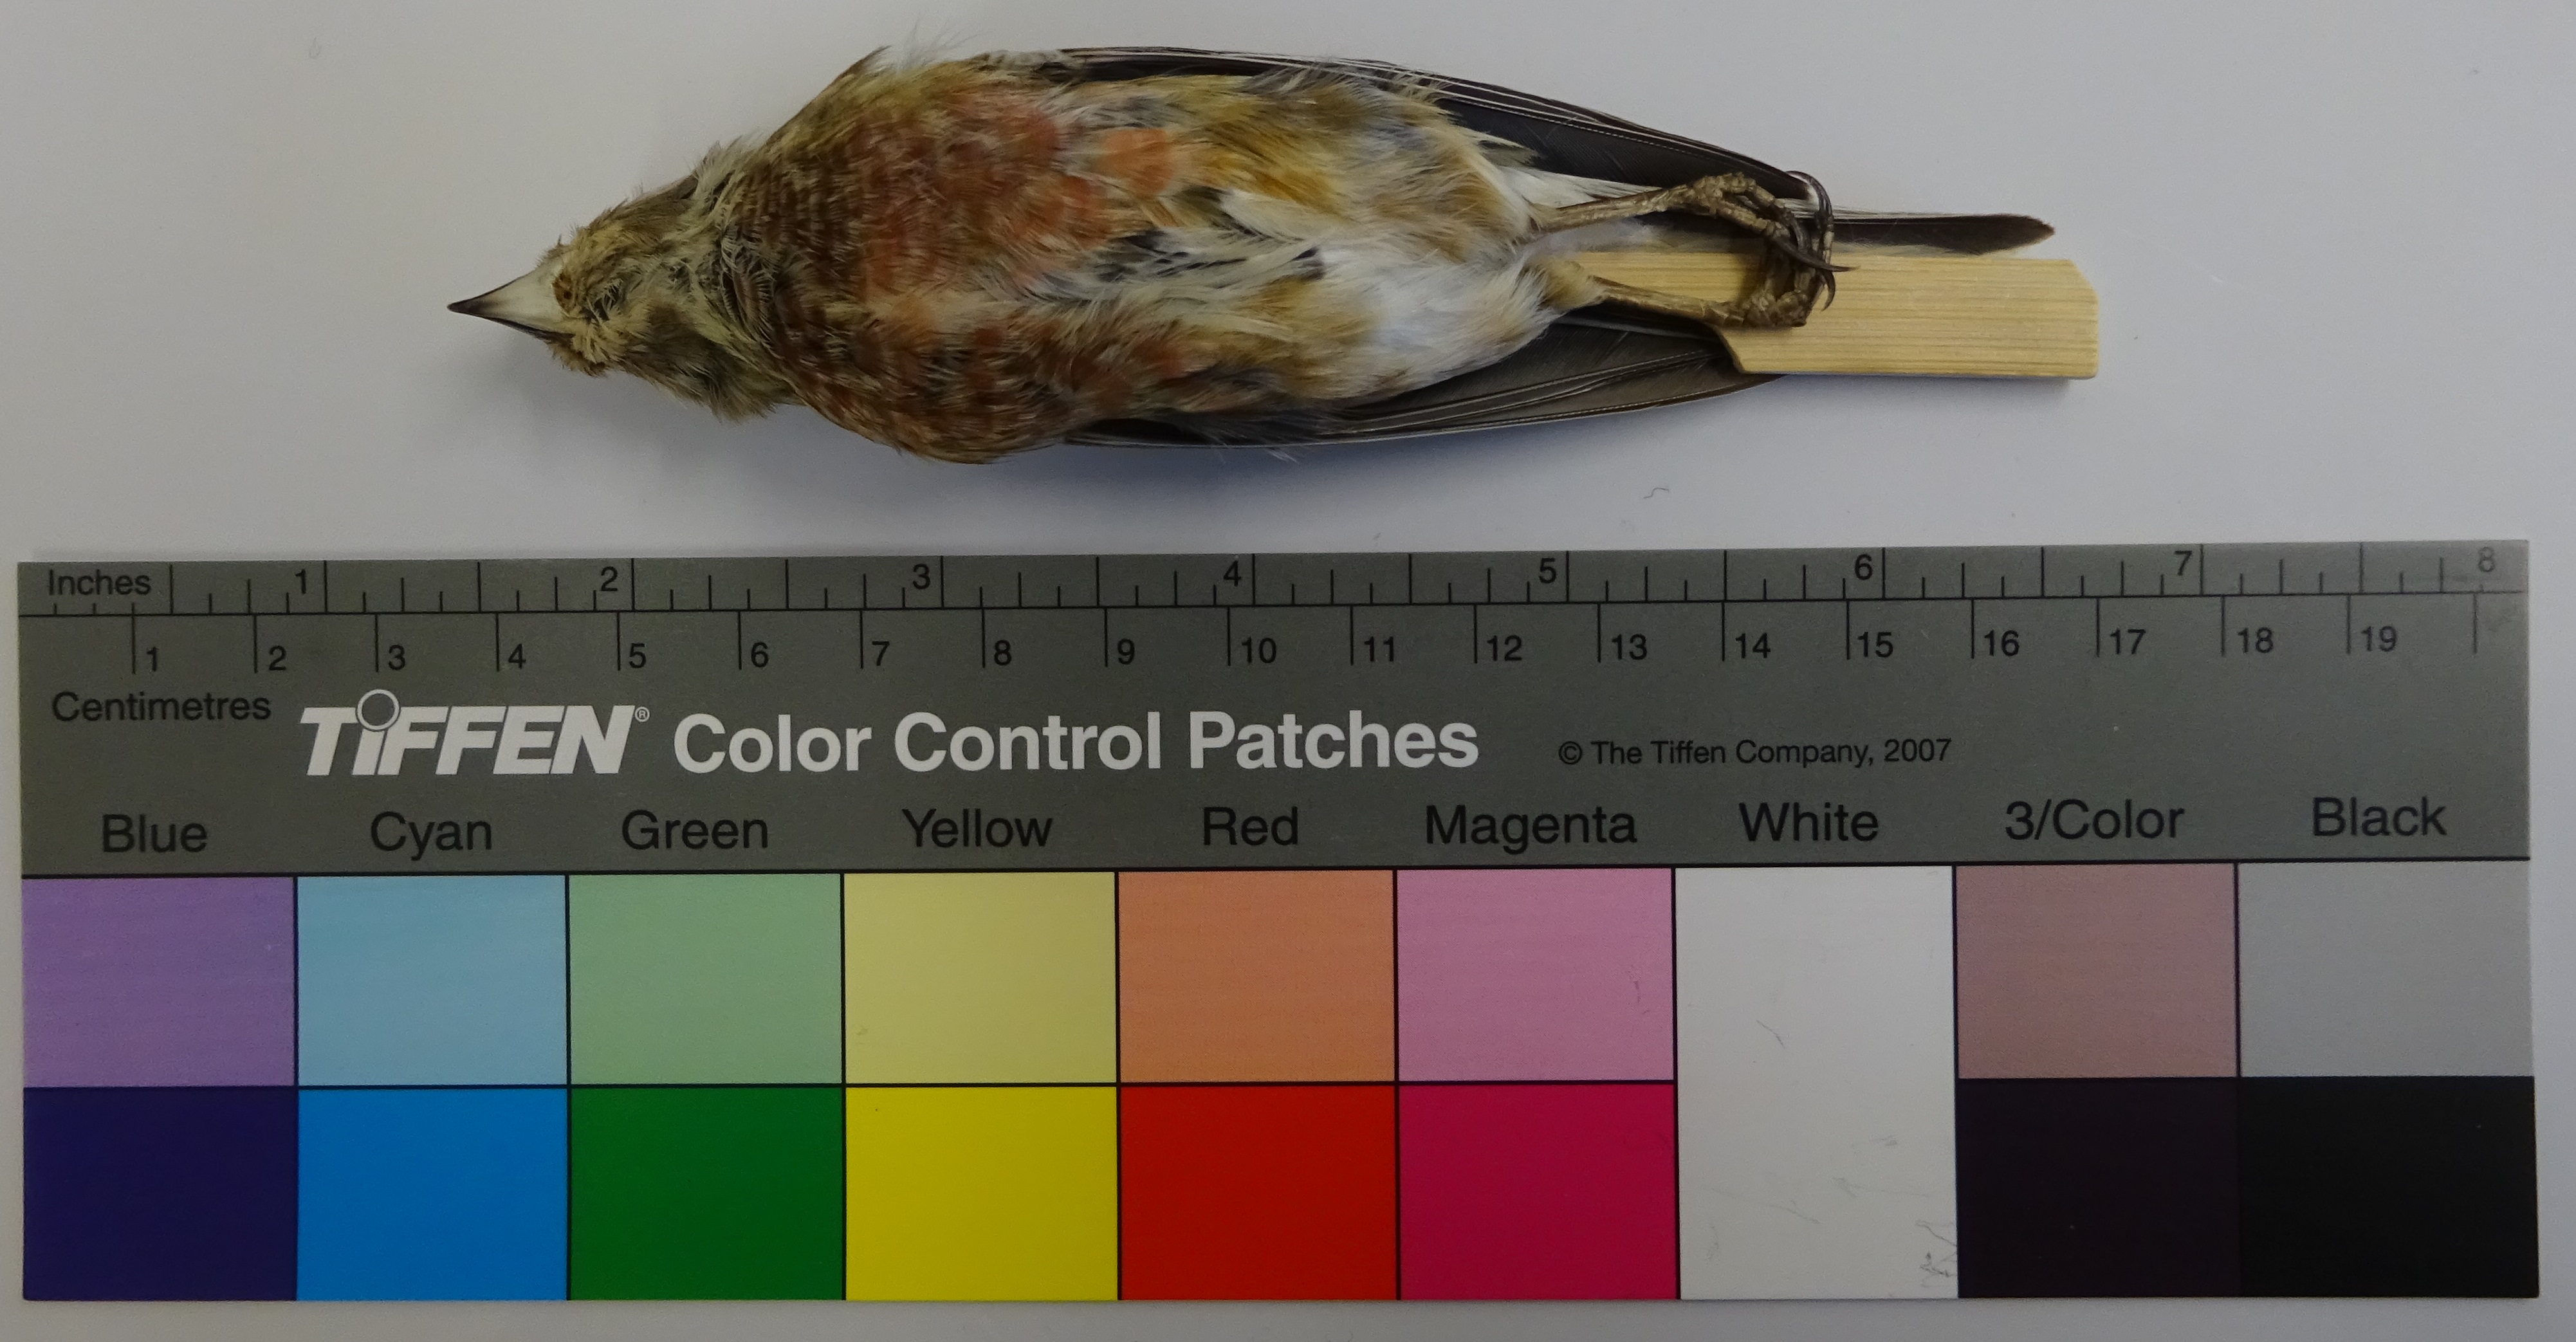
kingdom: Animalia
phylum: Chordata
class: Aves
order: Passeriformes
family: Fringillidae
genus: Linaria
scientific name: Linaria cannabina
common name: Common linnet
